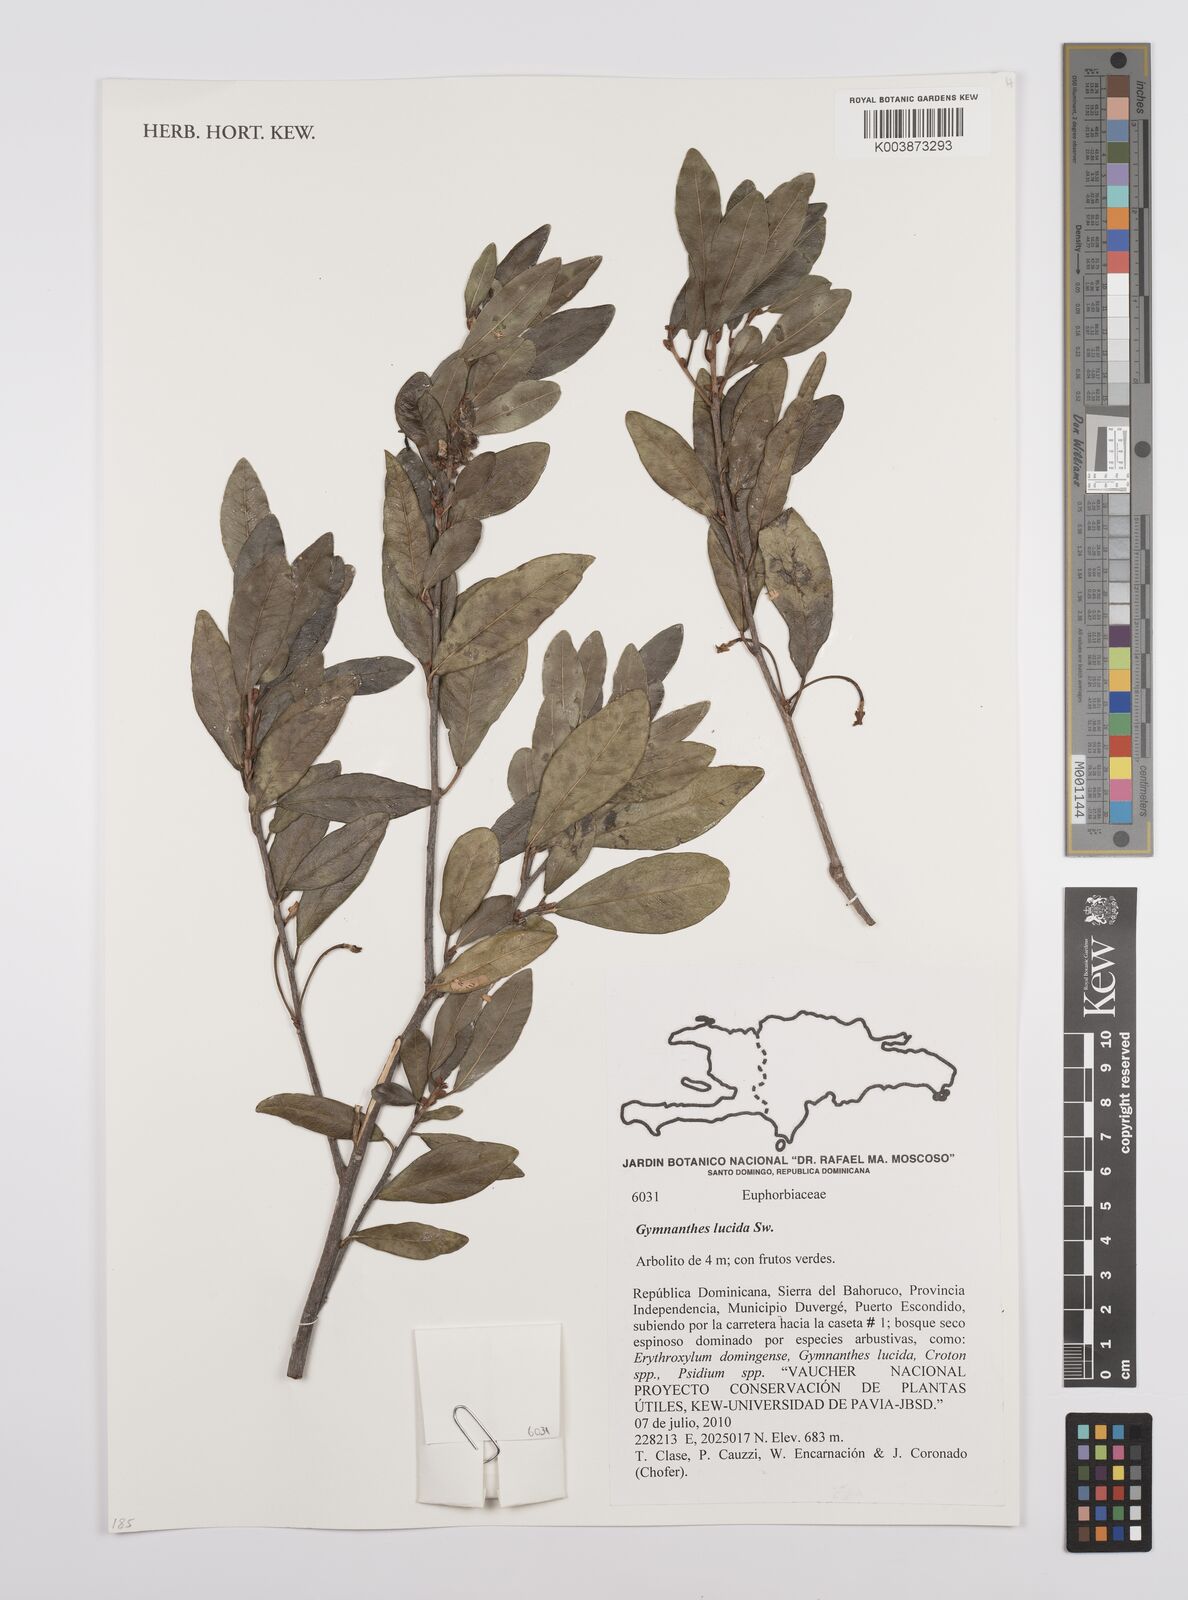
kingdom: Plantae
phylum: Tracheophyta
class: Magnoliopsida
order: Malpighiales
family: Euphorbiaceae
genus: Gymnanthes
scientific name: Gymnanthes lucida
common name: Oysterwood
